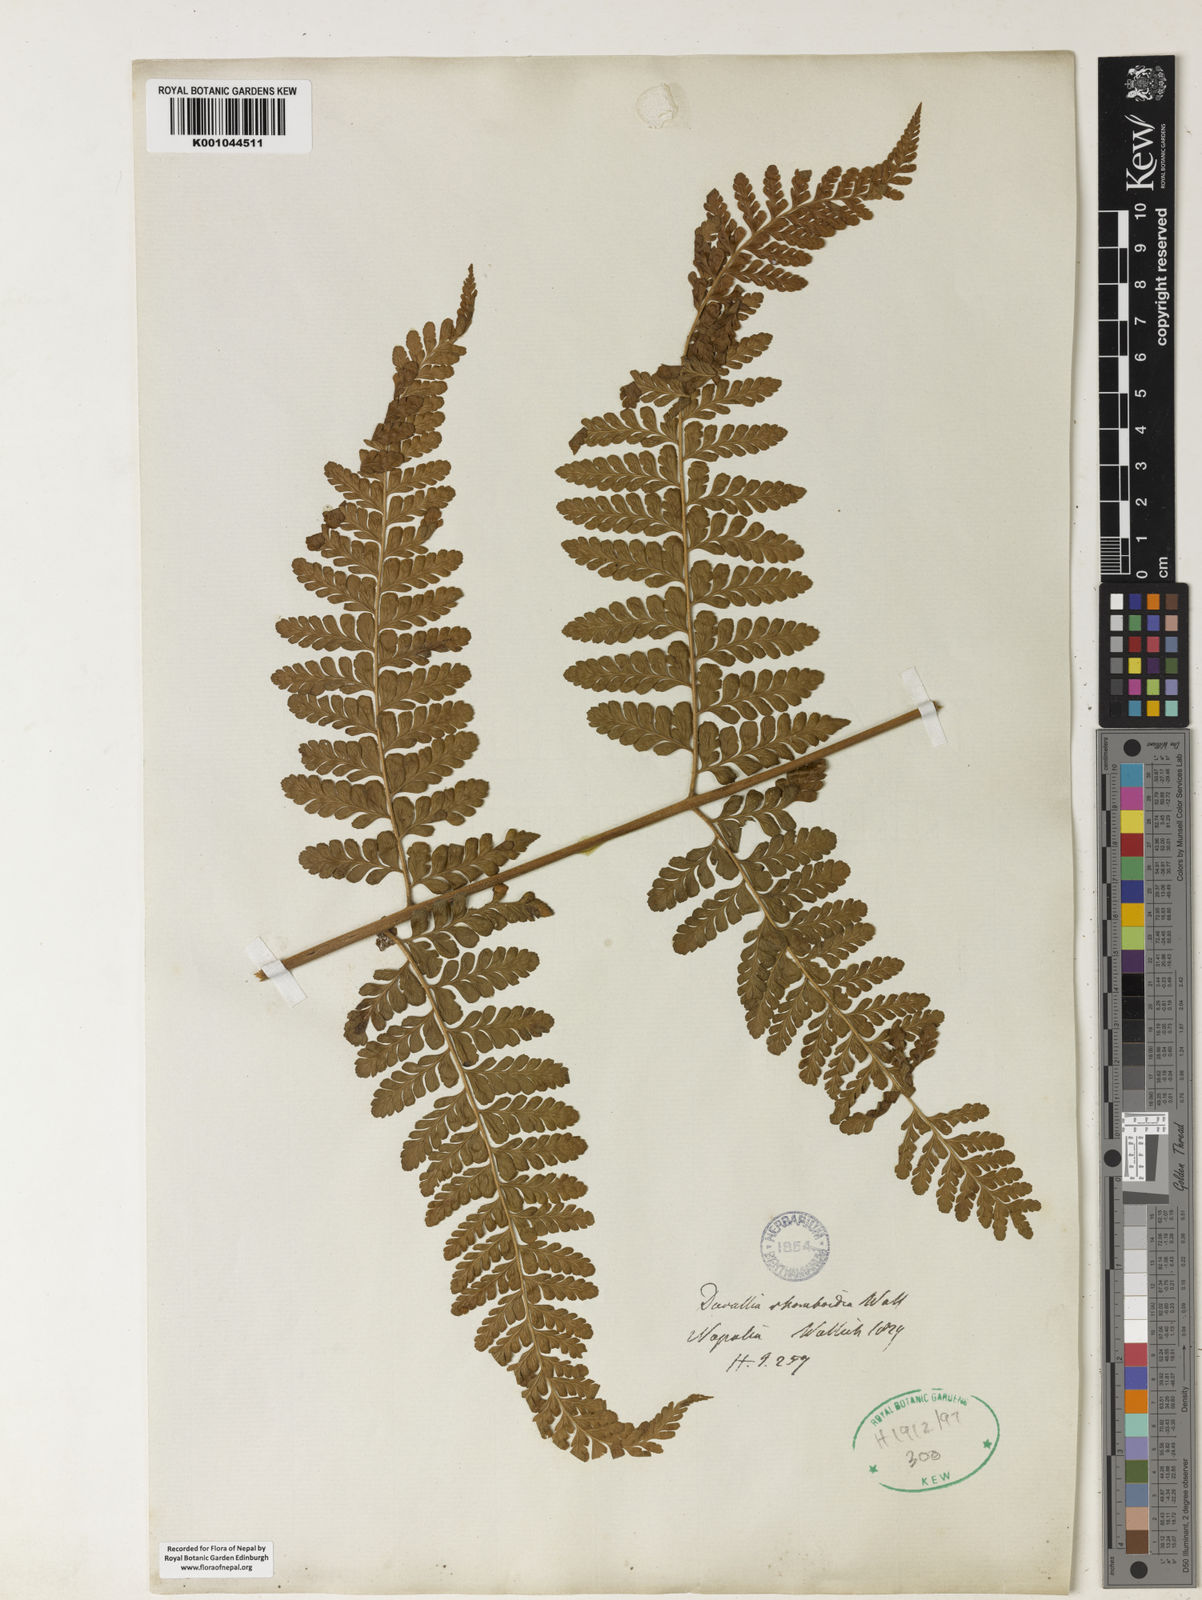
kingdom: Plantae
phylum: Tracheophyta
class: Polypodiopsida
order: Polypodiales
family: Dennstaedtiaceae
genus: Microlepia
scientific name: Microlepia pilosiuscula
